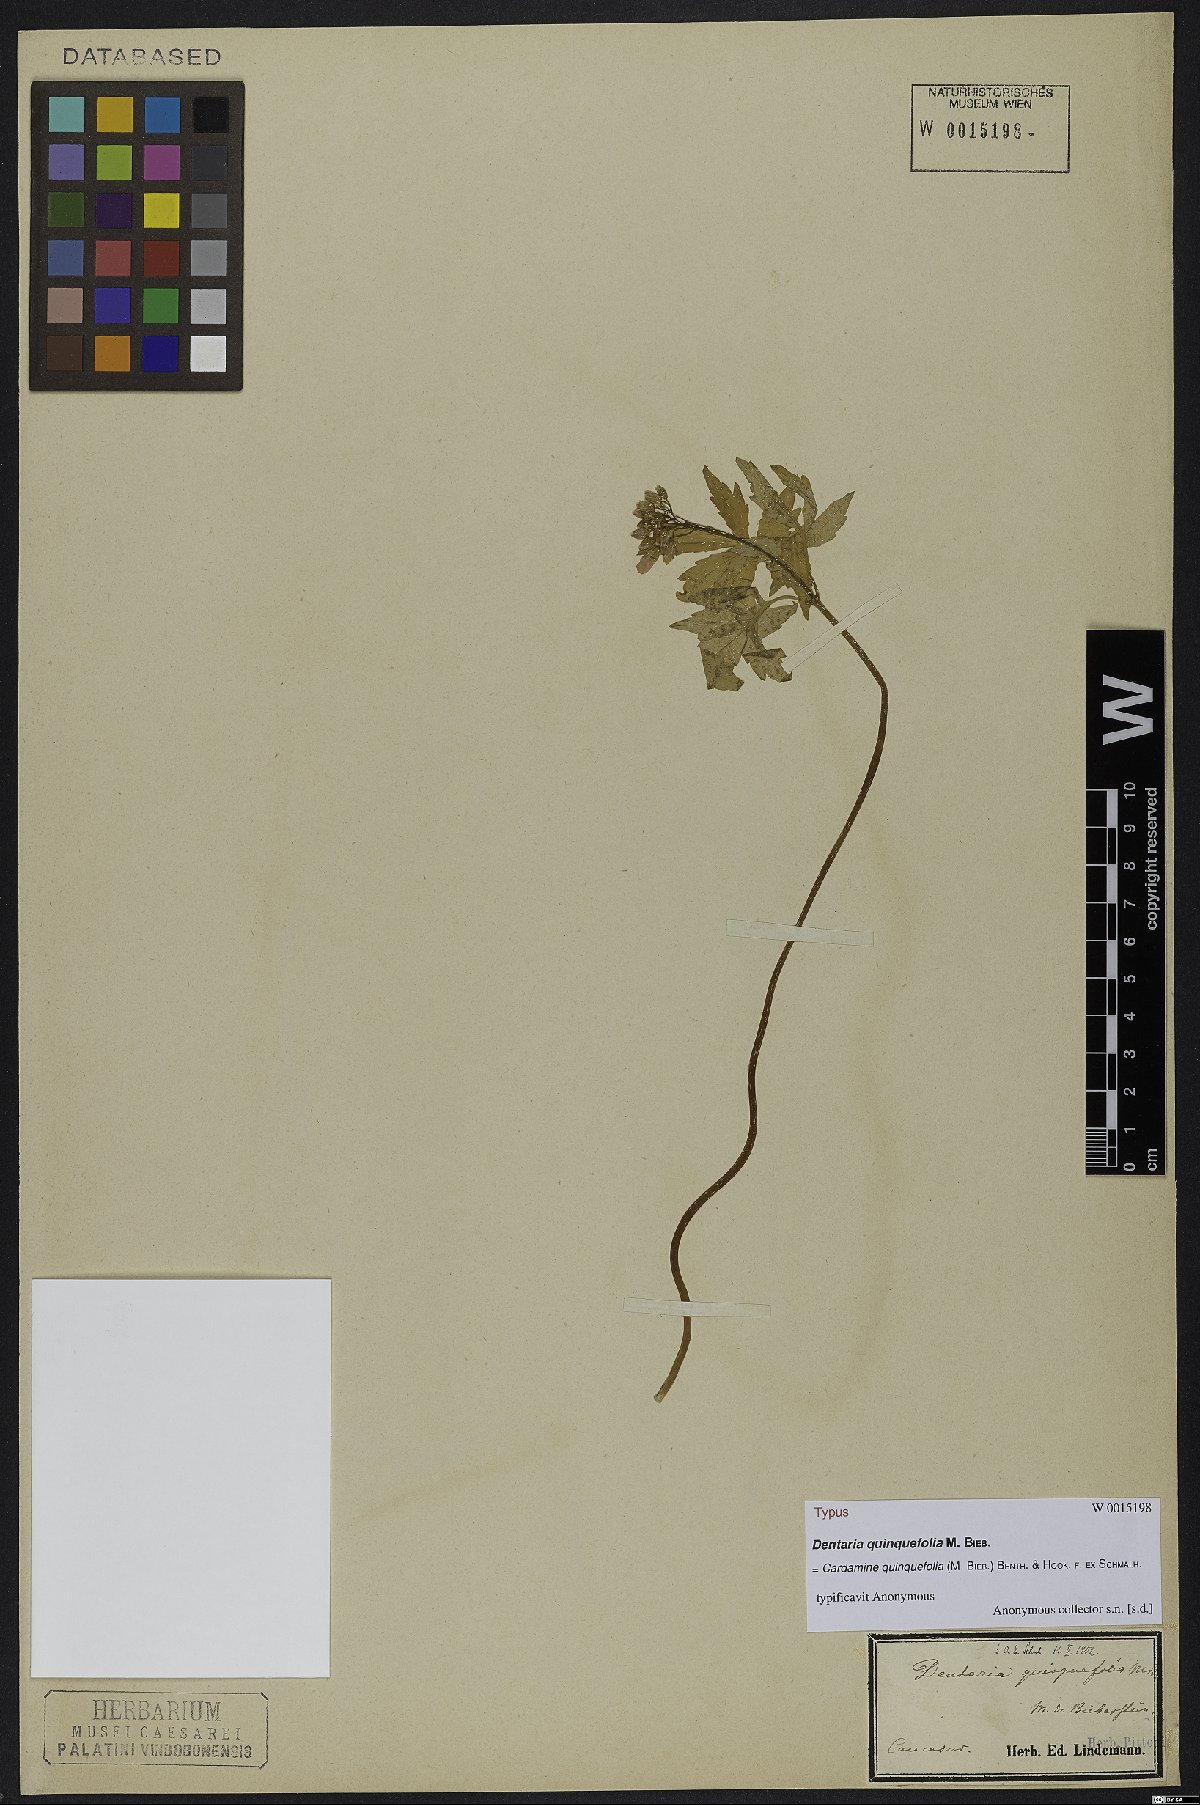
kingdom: Plantae
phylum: Tracheophyta
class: Magnoliopsida
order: Brassicales
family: Brassicaceae
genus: Cardamine
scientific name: Cardamine quinquefolia
